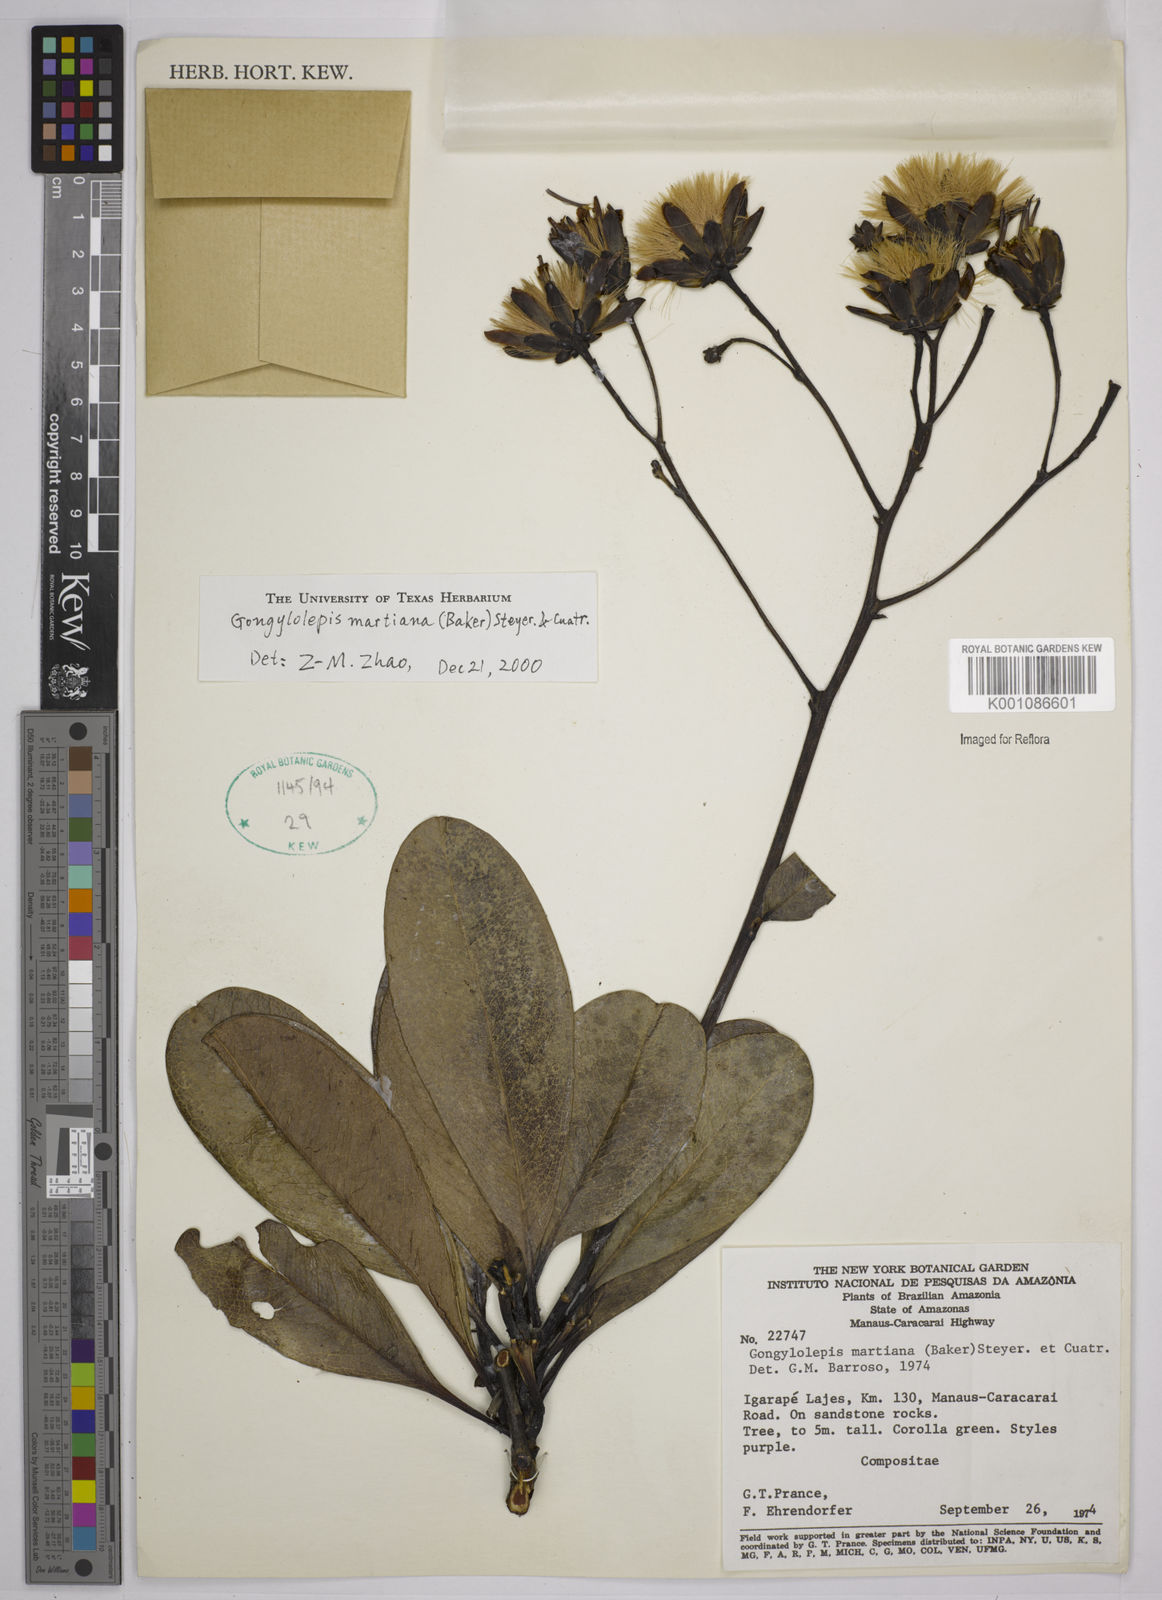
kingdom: Plantae
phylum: Tracheophyta
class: Magnoliopsida
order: Asterales
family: Asteraceae
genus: Gongylolepis
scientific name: Gongylolepis martiana
